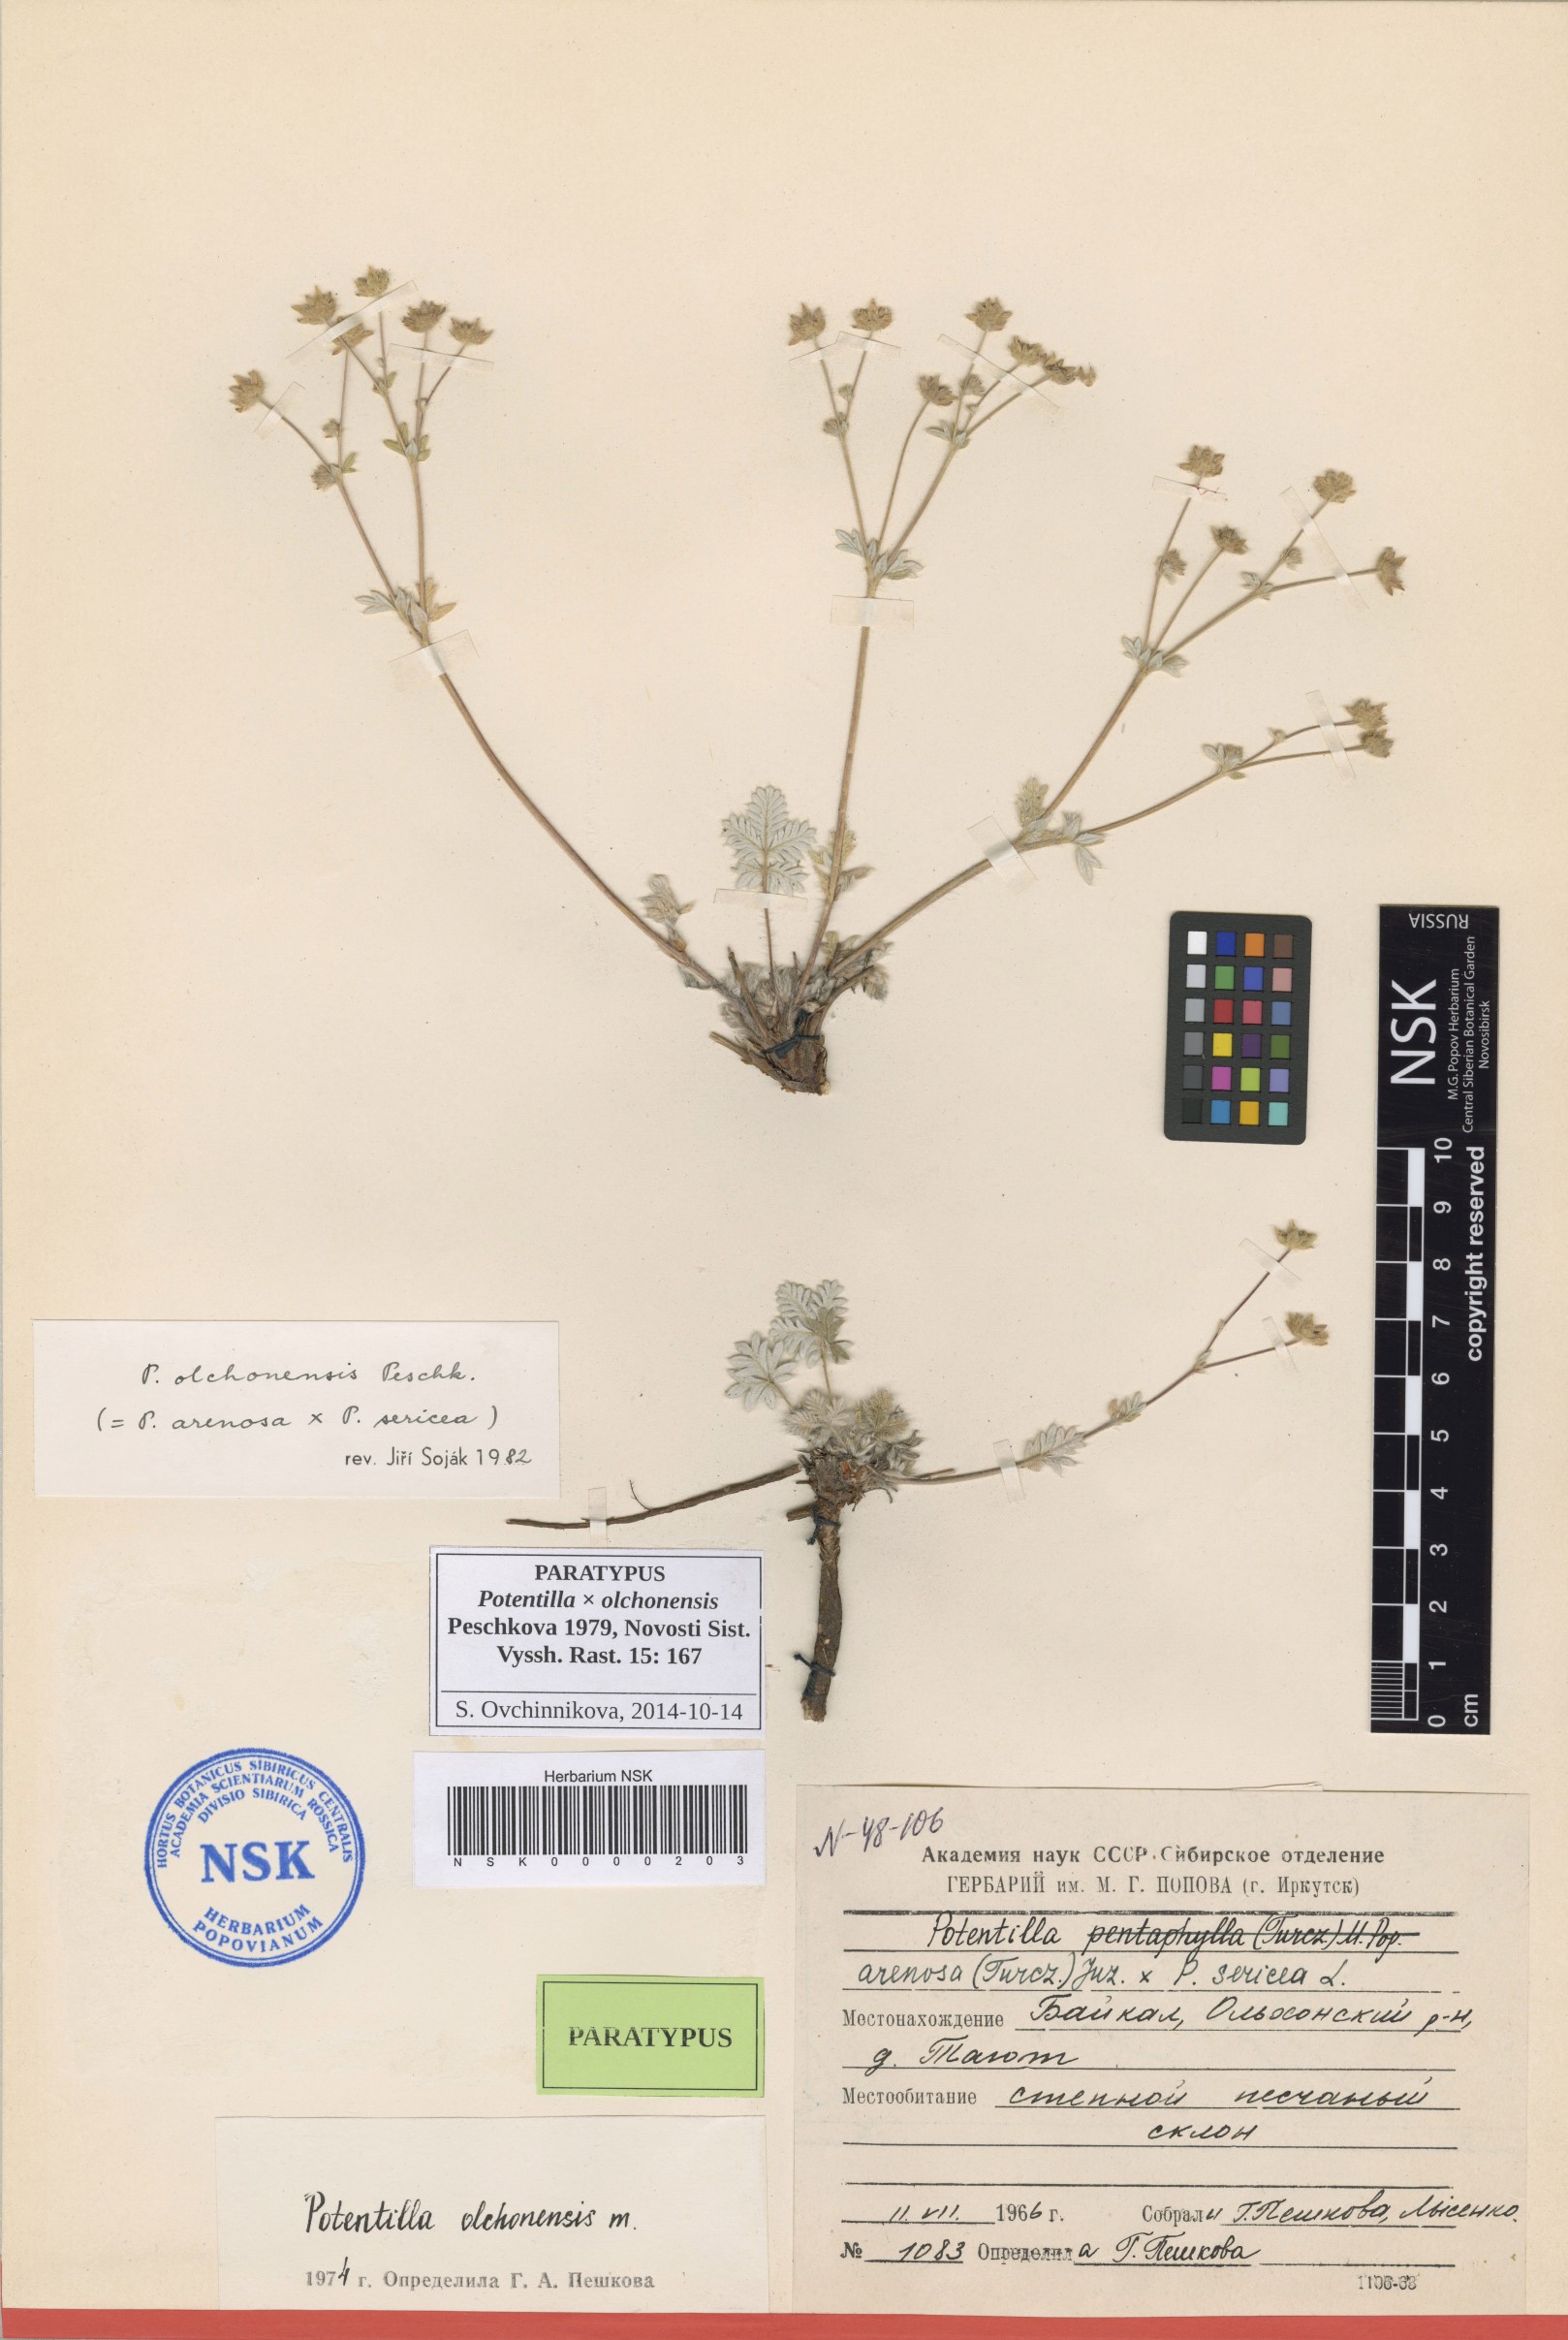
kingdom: Plantae
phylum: Tracheophyta
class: Magnoliopsida
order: Rosales
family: Rosaceae
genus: Potentilla
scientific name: Potentilla olchonensis
